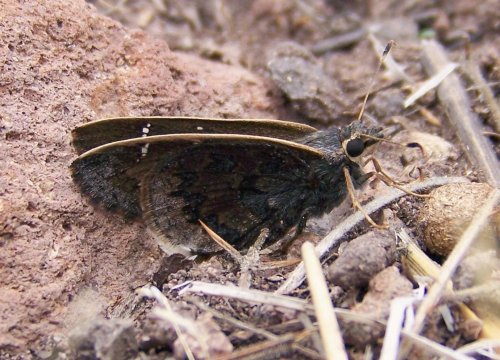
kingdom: Animalia
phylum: Arthropoda
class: Insecta
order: Lepidoptera
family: Hesperiidae
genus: Caicella
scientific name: Caicella caicus
